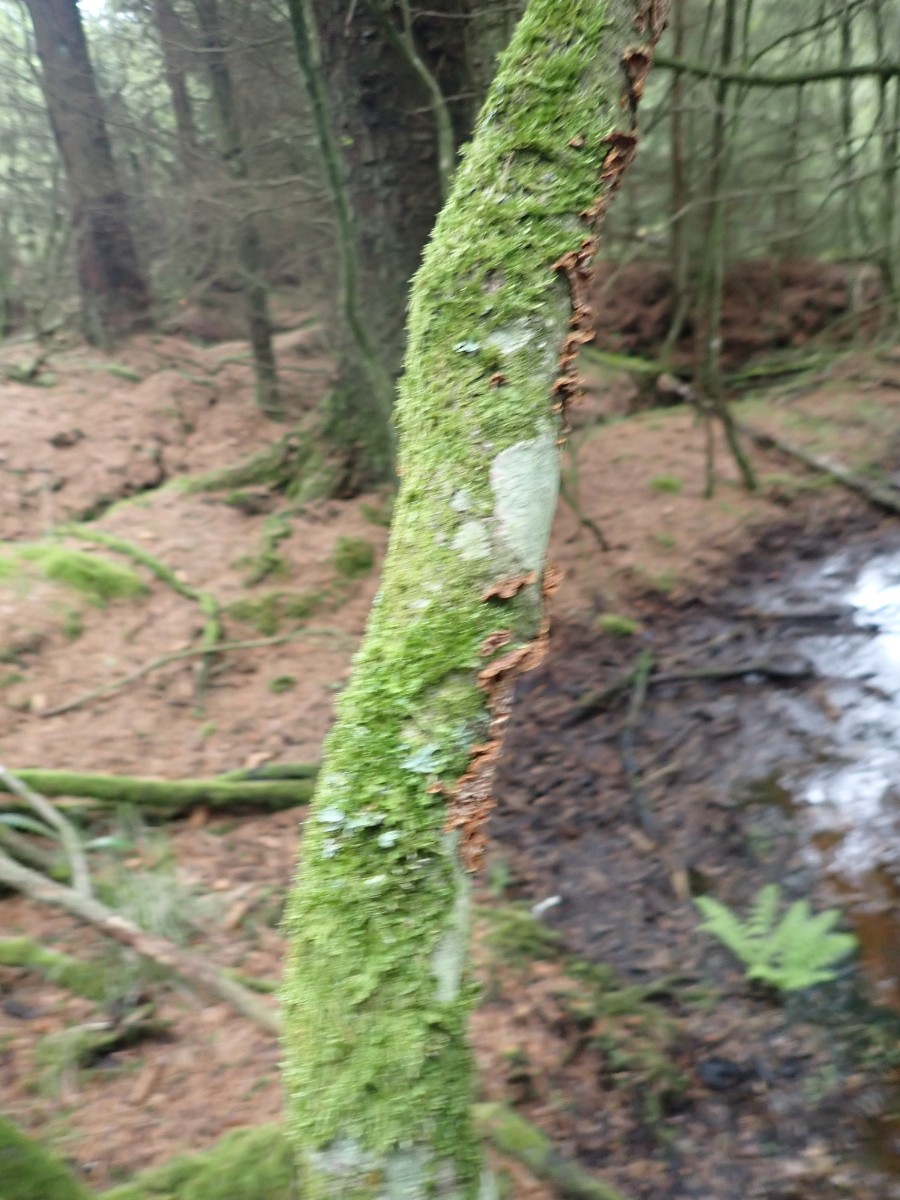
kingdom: Fungi
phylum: Basidiomycota
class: Agaricomycetes
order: Hymenochaetales
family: Hymenochaetaceae
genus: Hydnoporia
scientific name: Hydnoporia tabacina
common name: tobaksbrun ruslædersvamp
